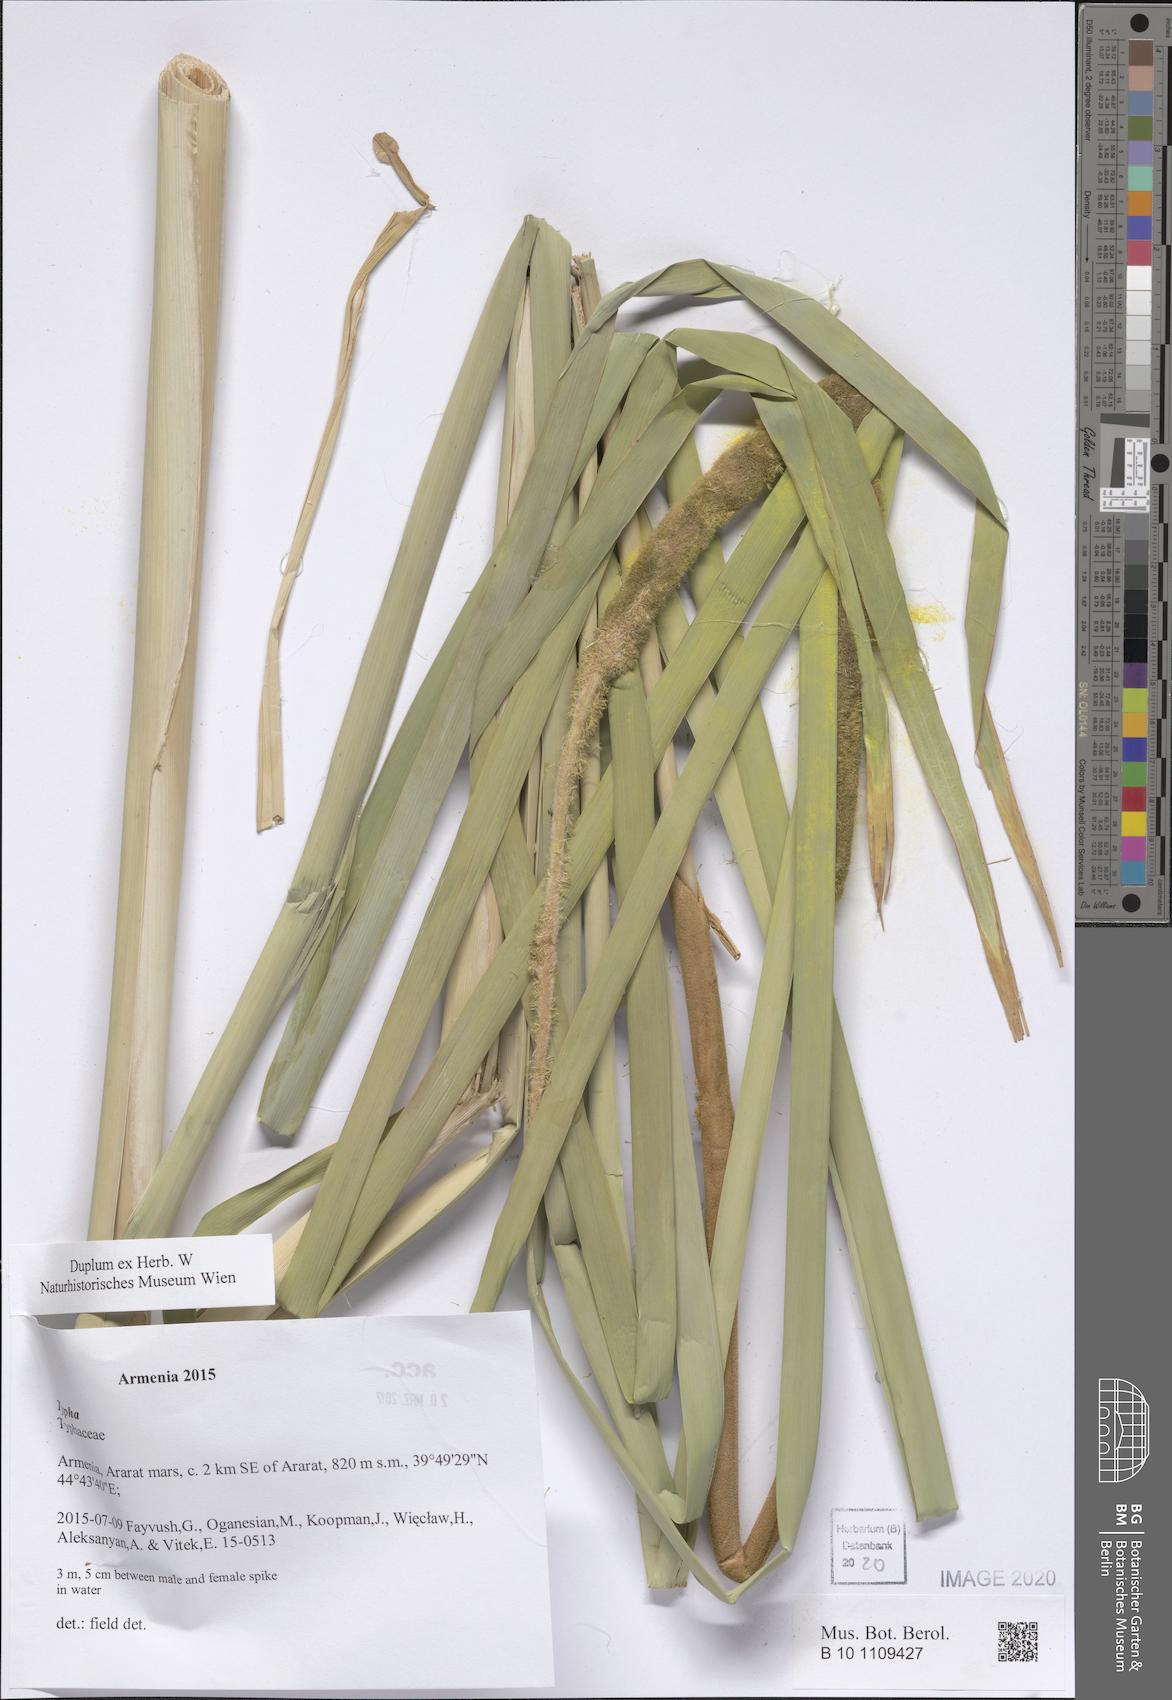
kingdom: Plantae
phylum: Tracheophyta
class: Liliopsida
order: Poales
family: Typhaceae
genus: Typha
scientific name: Typha
